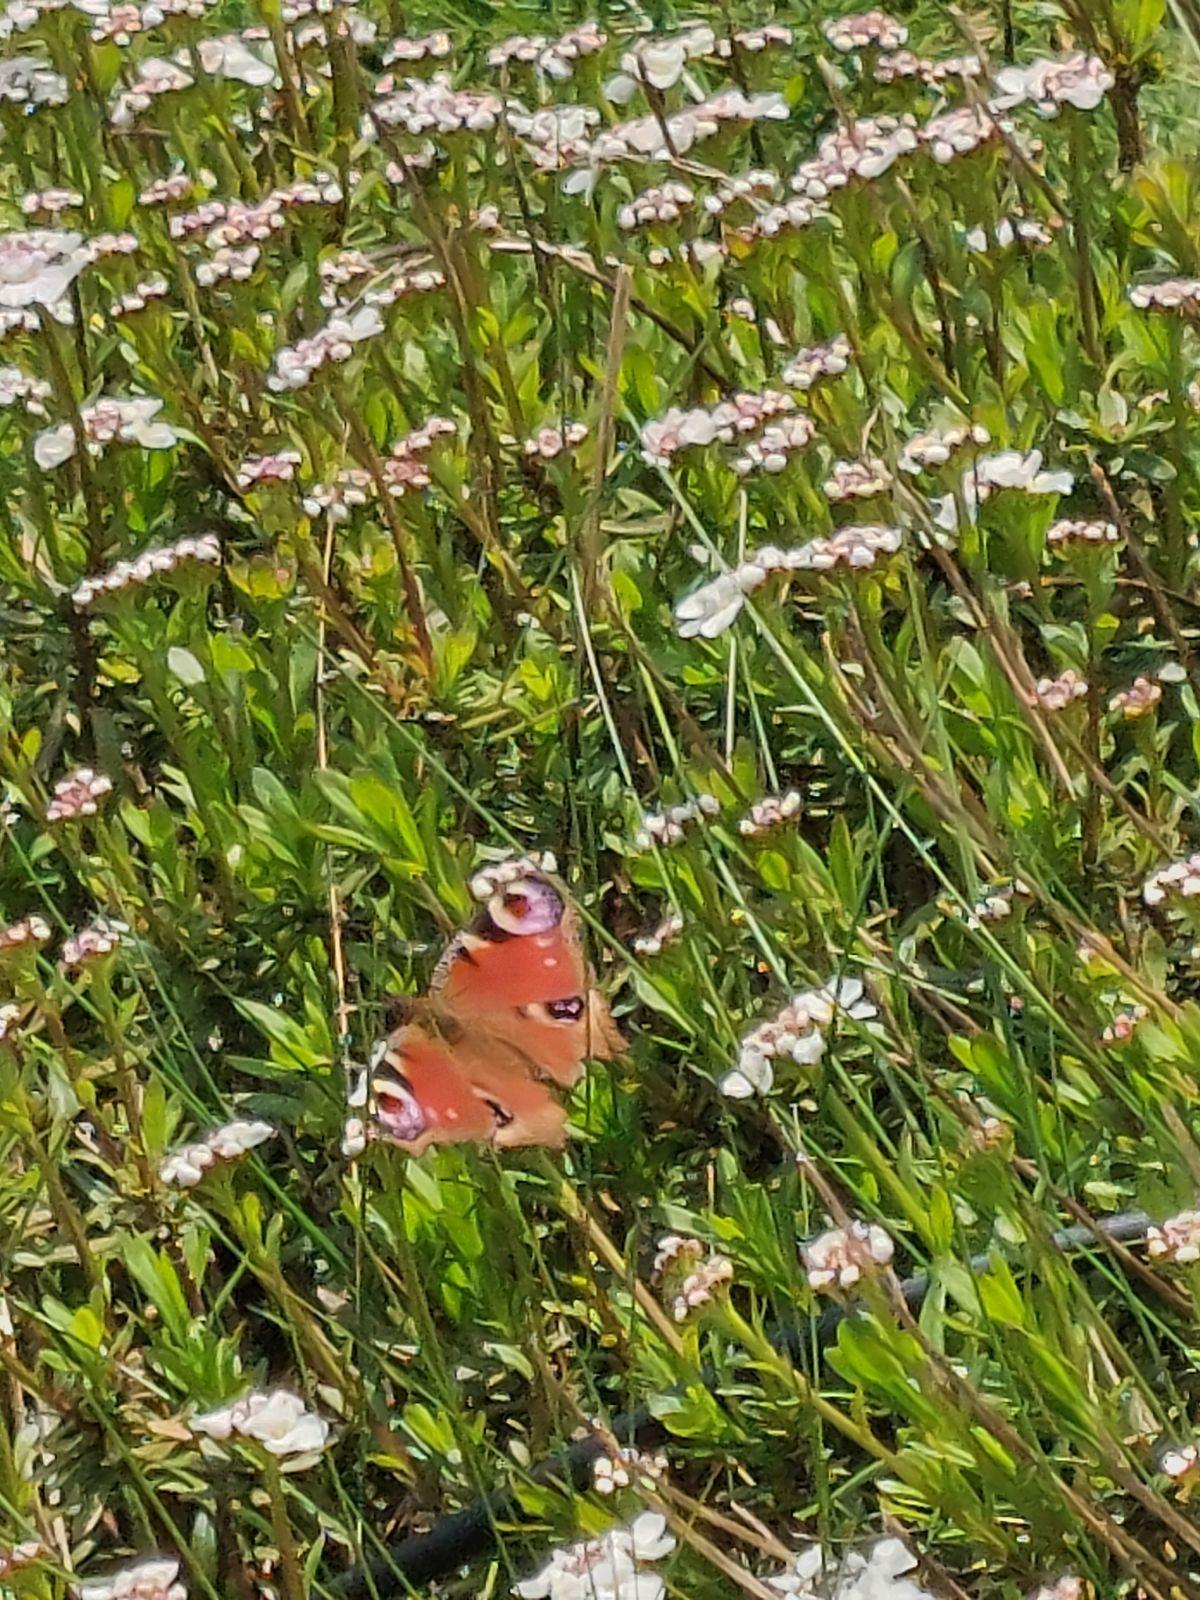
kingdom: Animalia
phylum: Arthropoda
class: Insecta
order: Lepidoptera
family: Nymphalidae
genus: Aglais
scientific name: Aglais io
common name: Dagpåfugleøje
